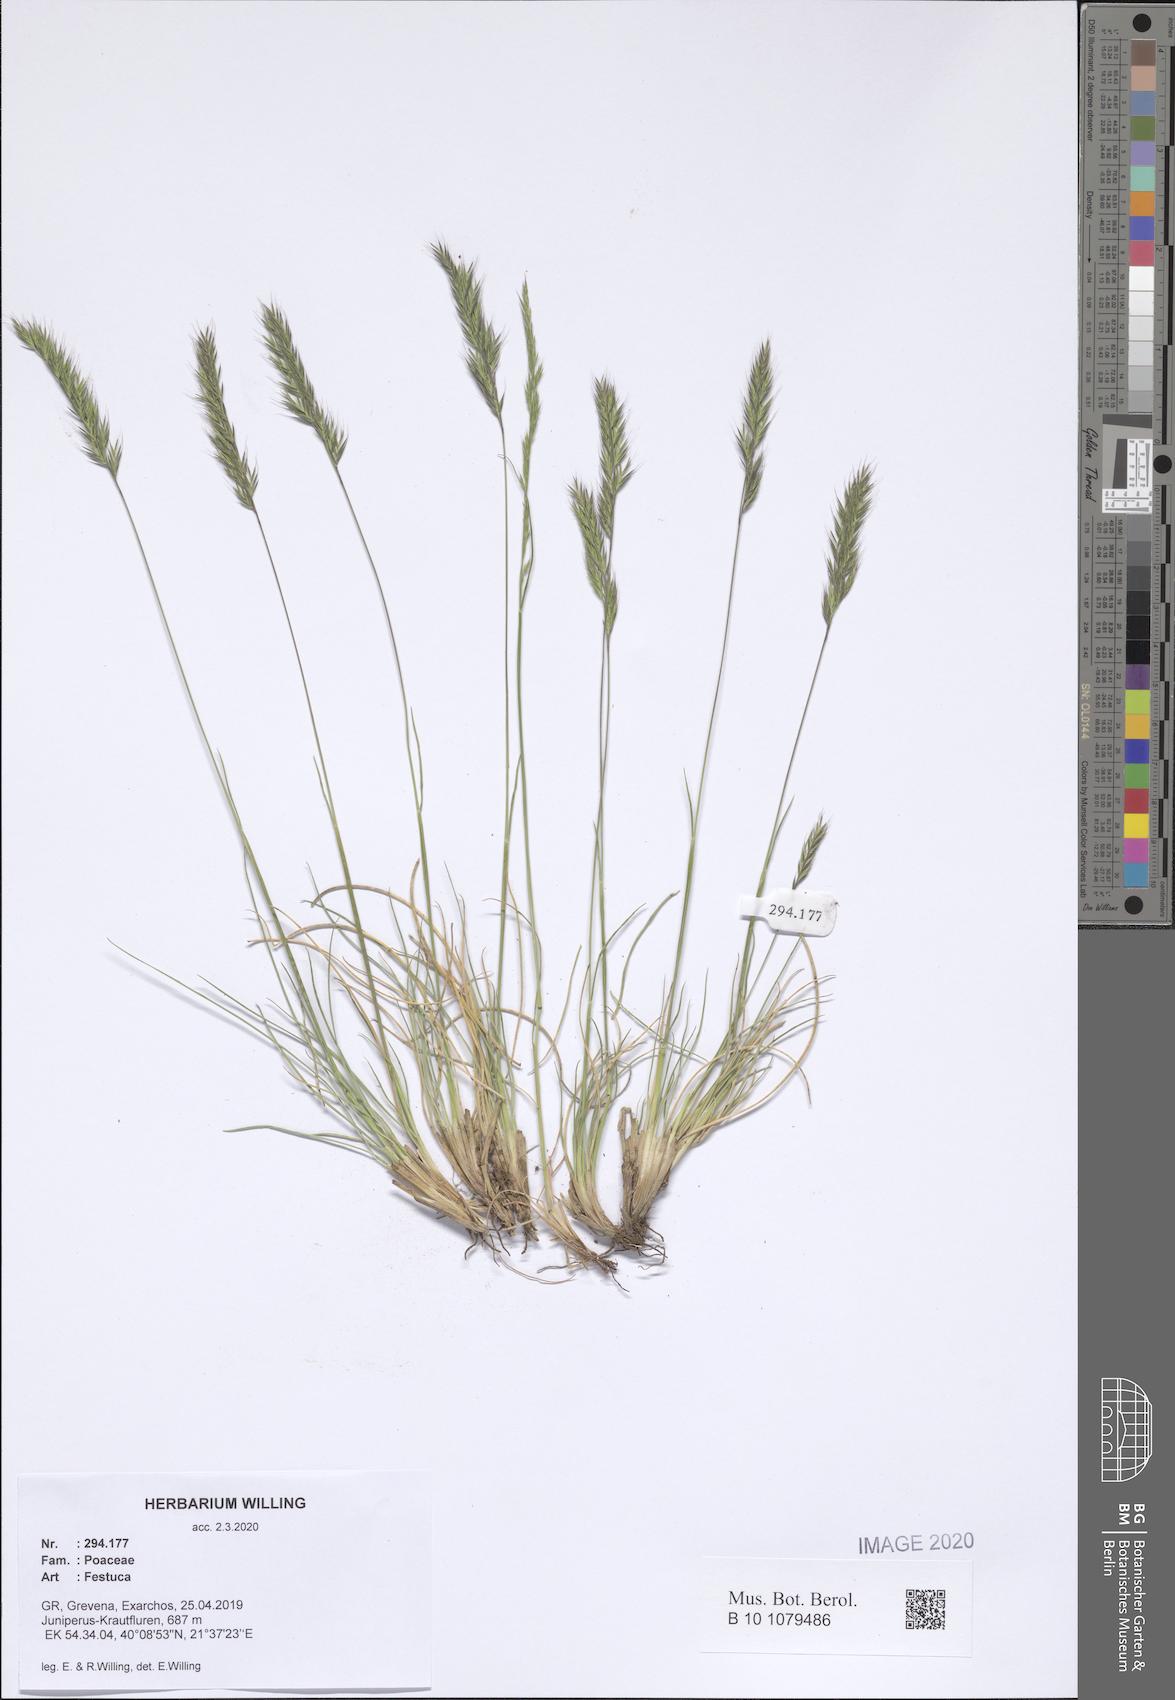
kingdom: Plantae
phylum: Tracheophyta
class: Liliopsida
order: Poales
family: Poaceae
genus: Festuca
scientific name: Festuca
